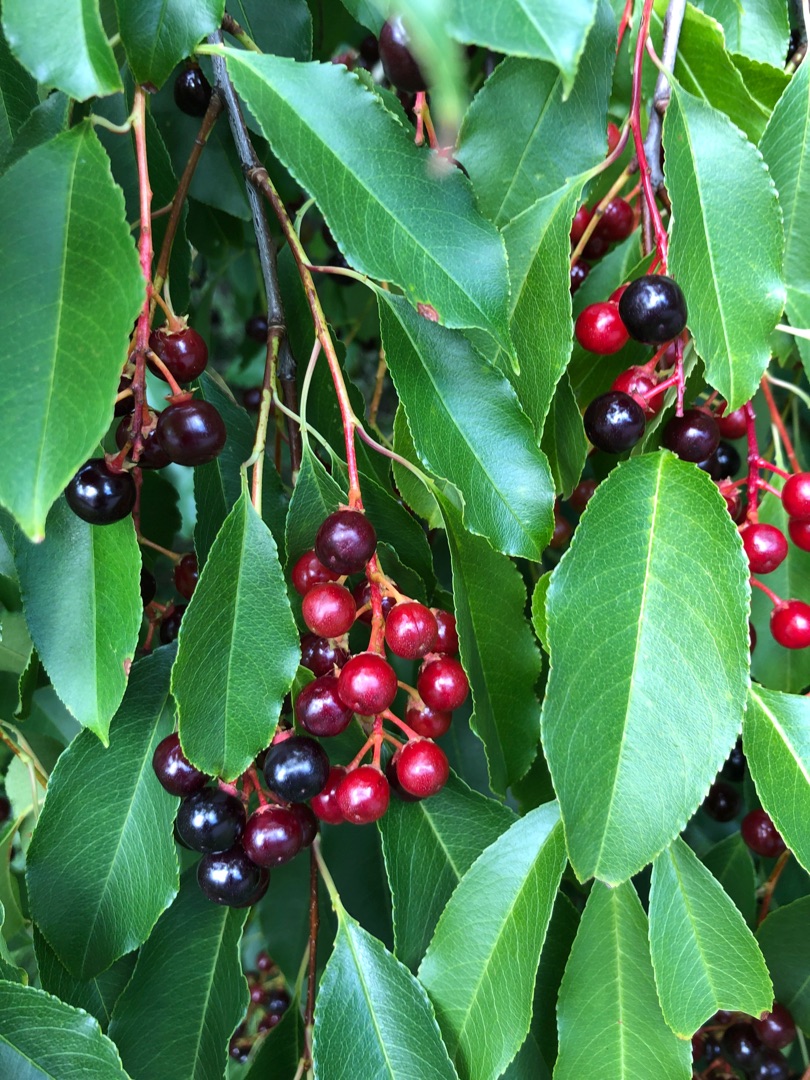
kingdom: Plantae
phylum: Tracheophyta
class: Magnoliopsida
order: Rosales
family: Rosaceae
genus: Prunus
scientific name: Prunus serotina
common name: Glansbladet hæg
